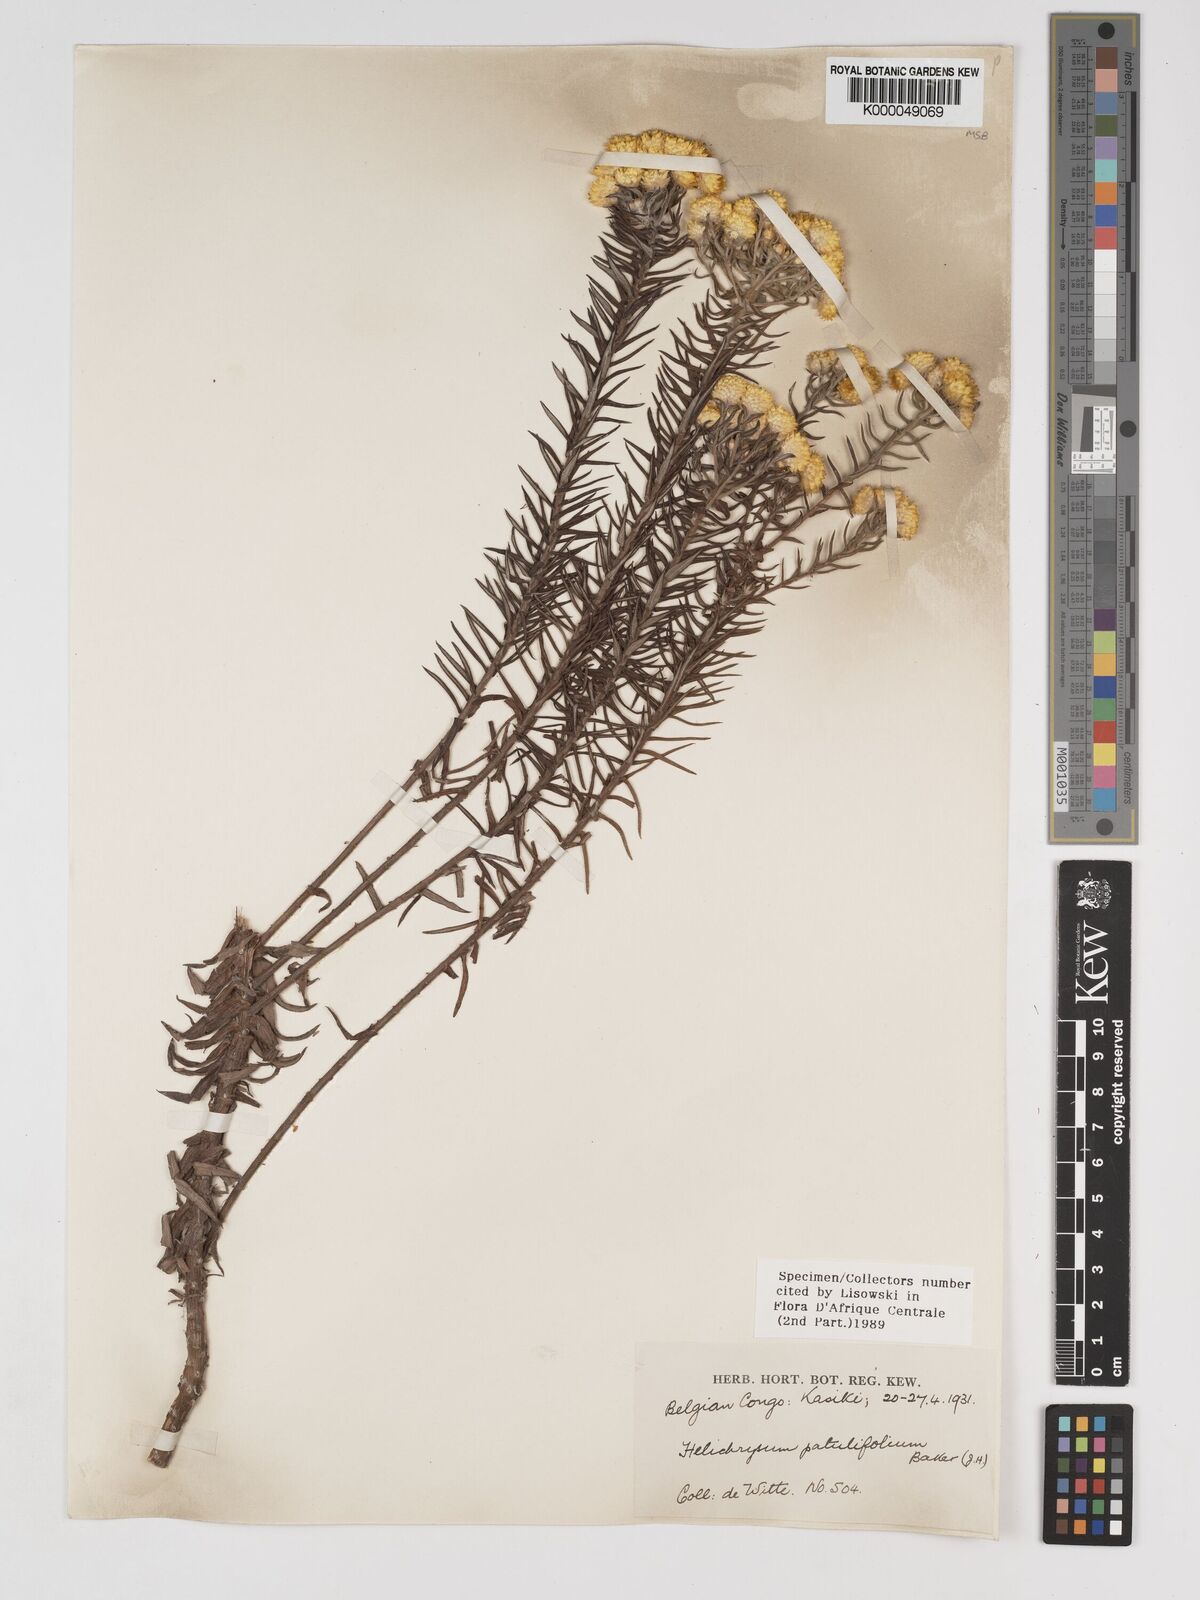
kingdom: Plantae
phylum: Tracheophyta
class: Magnoliopsida
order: Asterales
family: Asteraceae
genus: Helichrysum
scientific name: Helichrysum patulifolium
